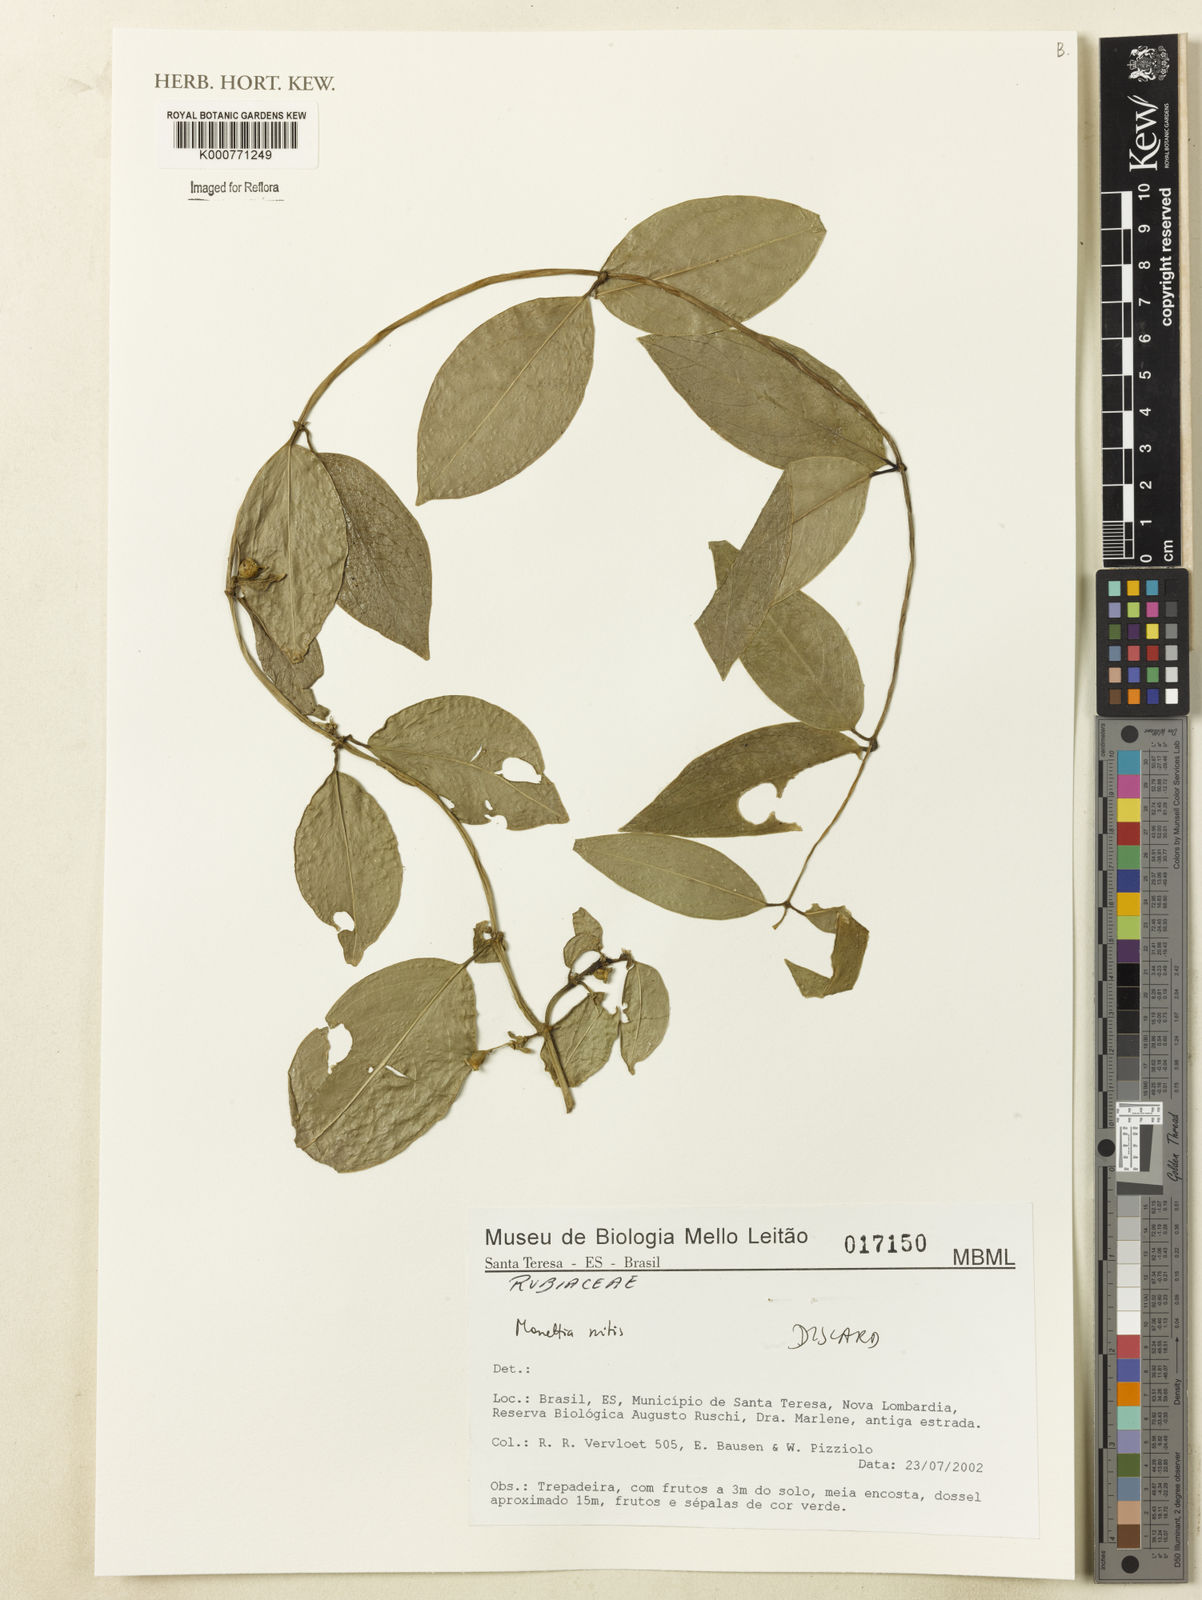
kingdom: Plantae
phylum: Tracheophyta
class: Magnoliopsida
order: Gentianales
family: Rubiaceae
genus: Manettia
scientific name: Manettia mitis
